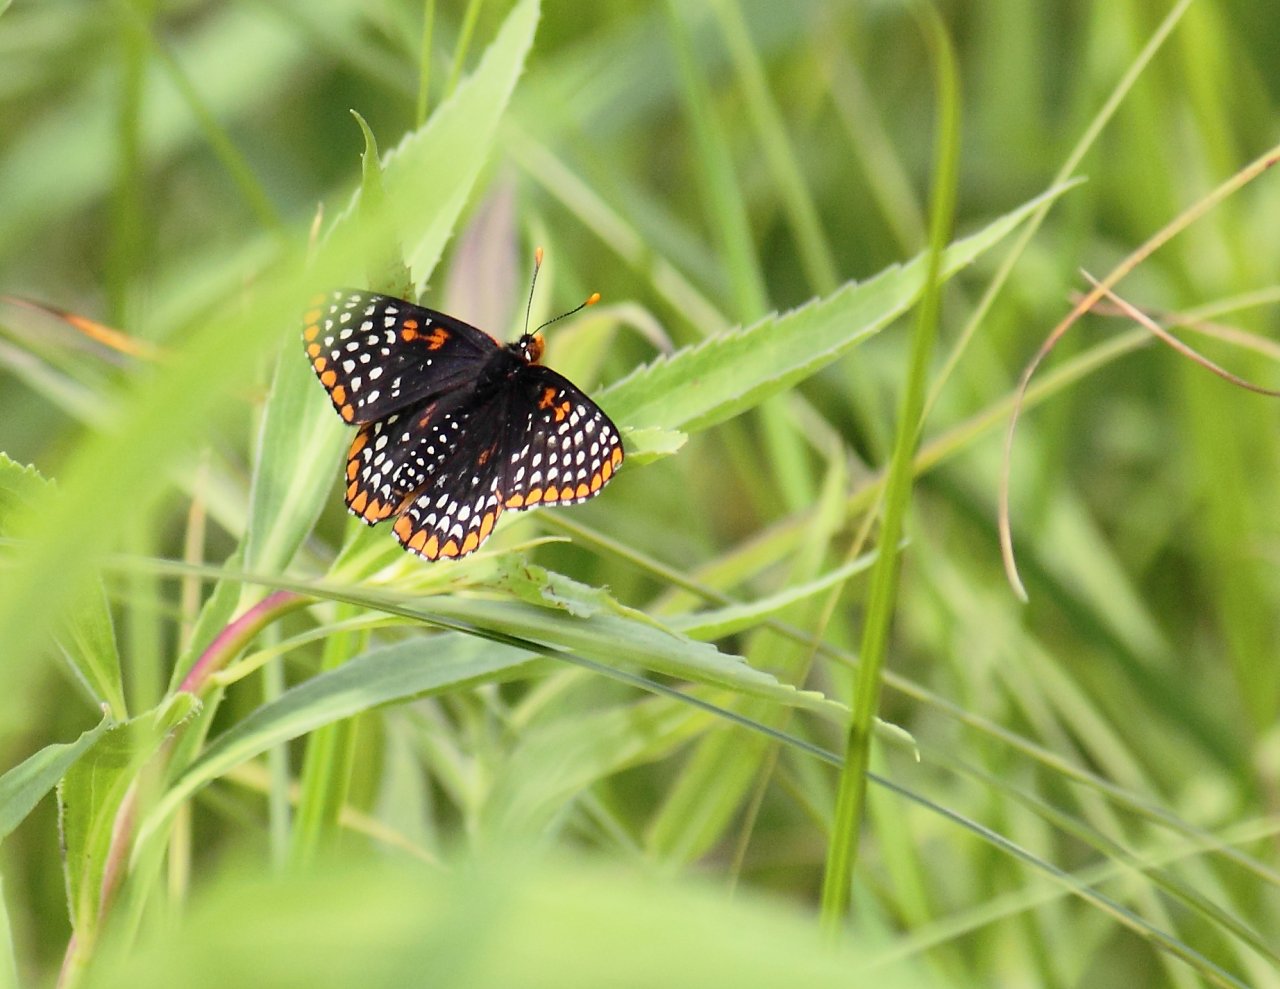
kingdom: Animalia
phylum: Arthropoda
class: Insecta
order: Lepidoptera
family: Nymphalidae
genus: Euphydryas
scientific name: Euphydryas phaeton
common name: Baltimore Checkerspot
